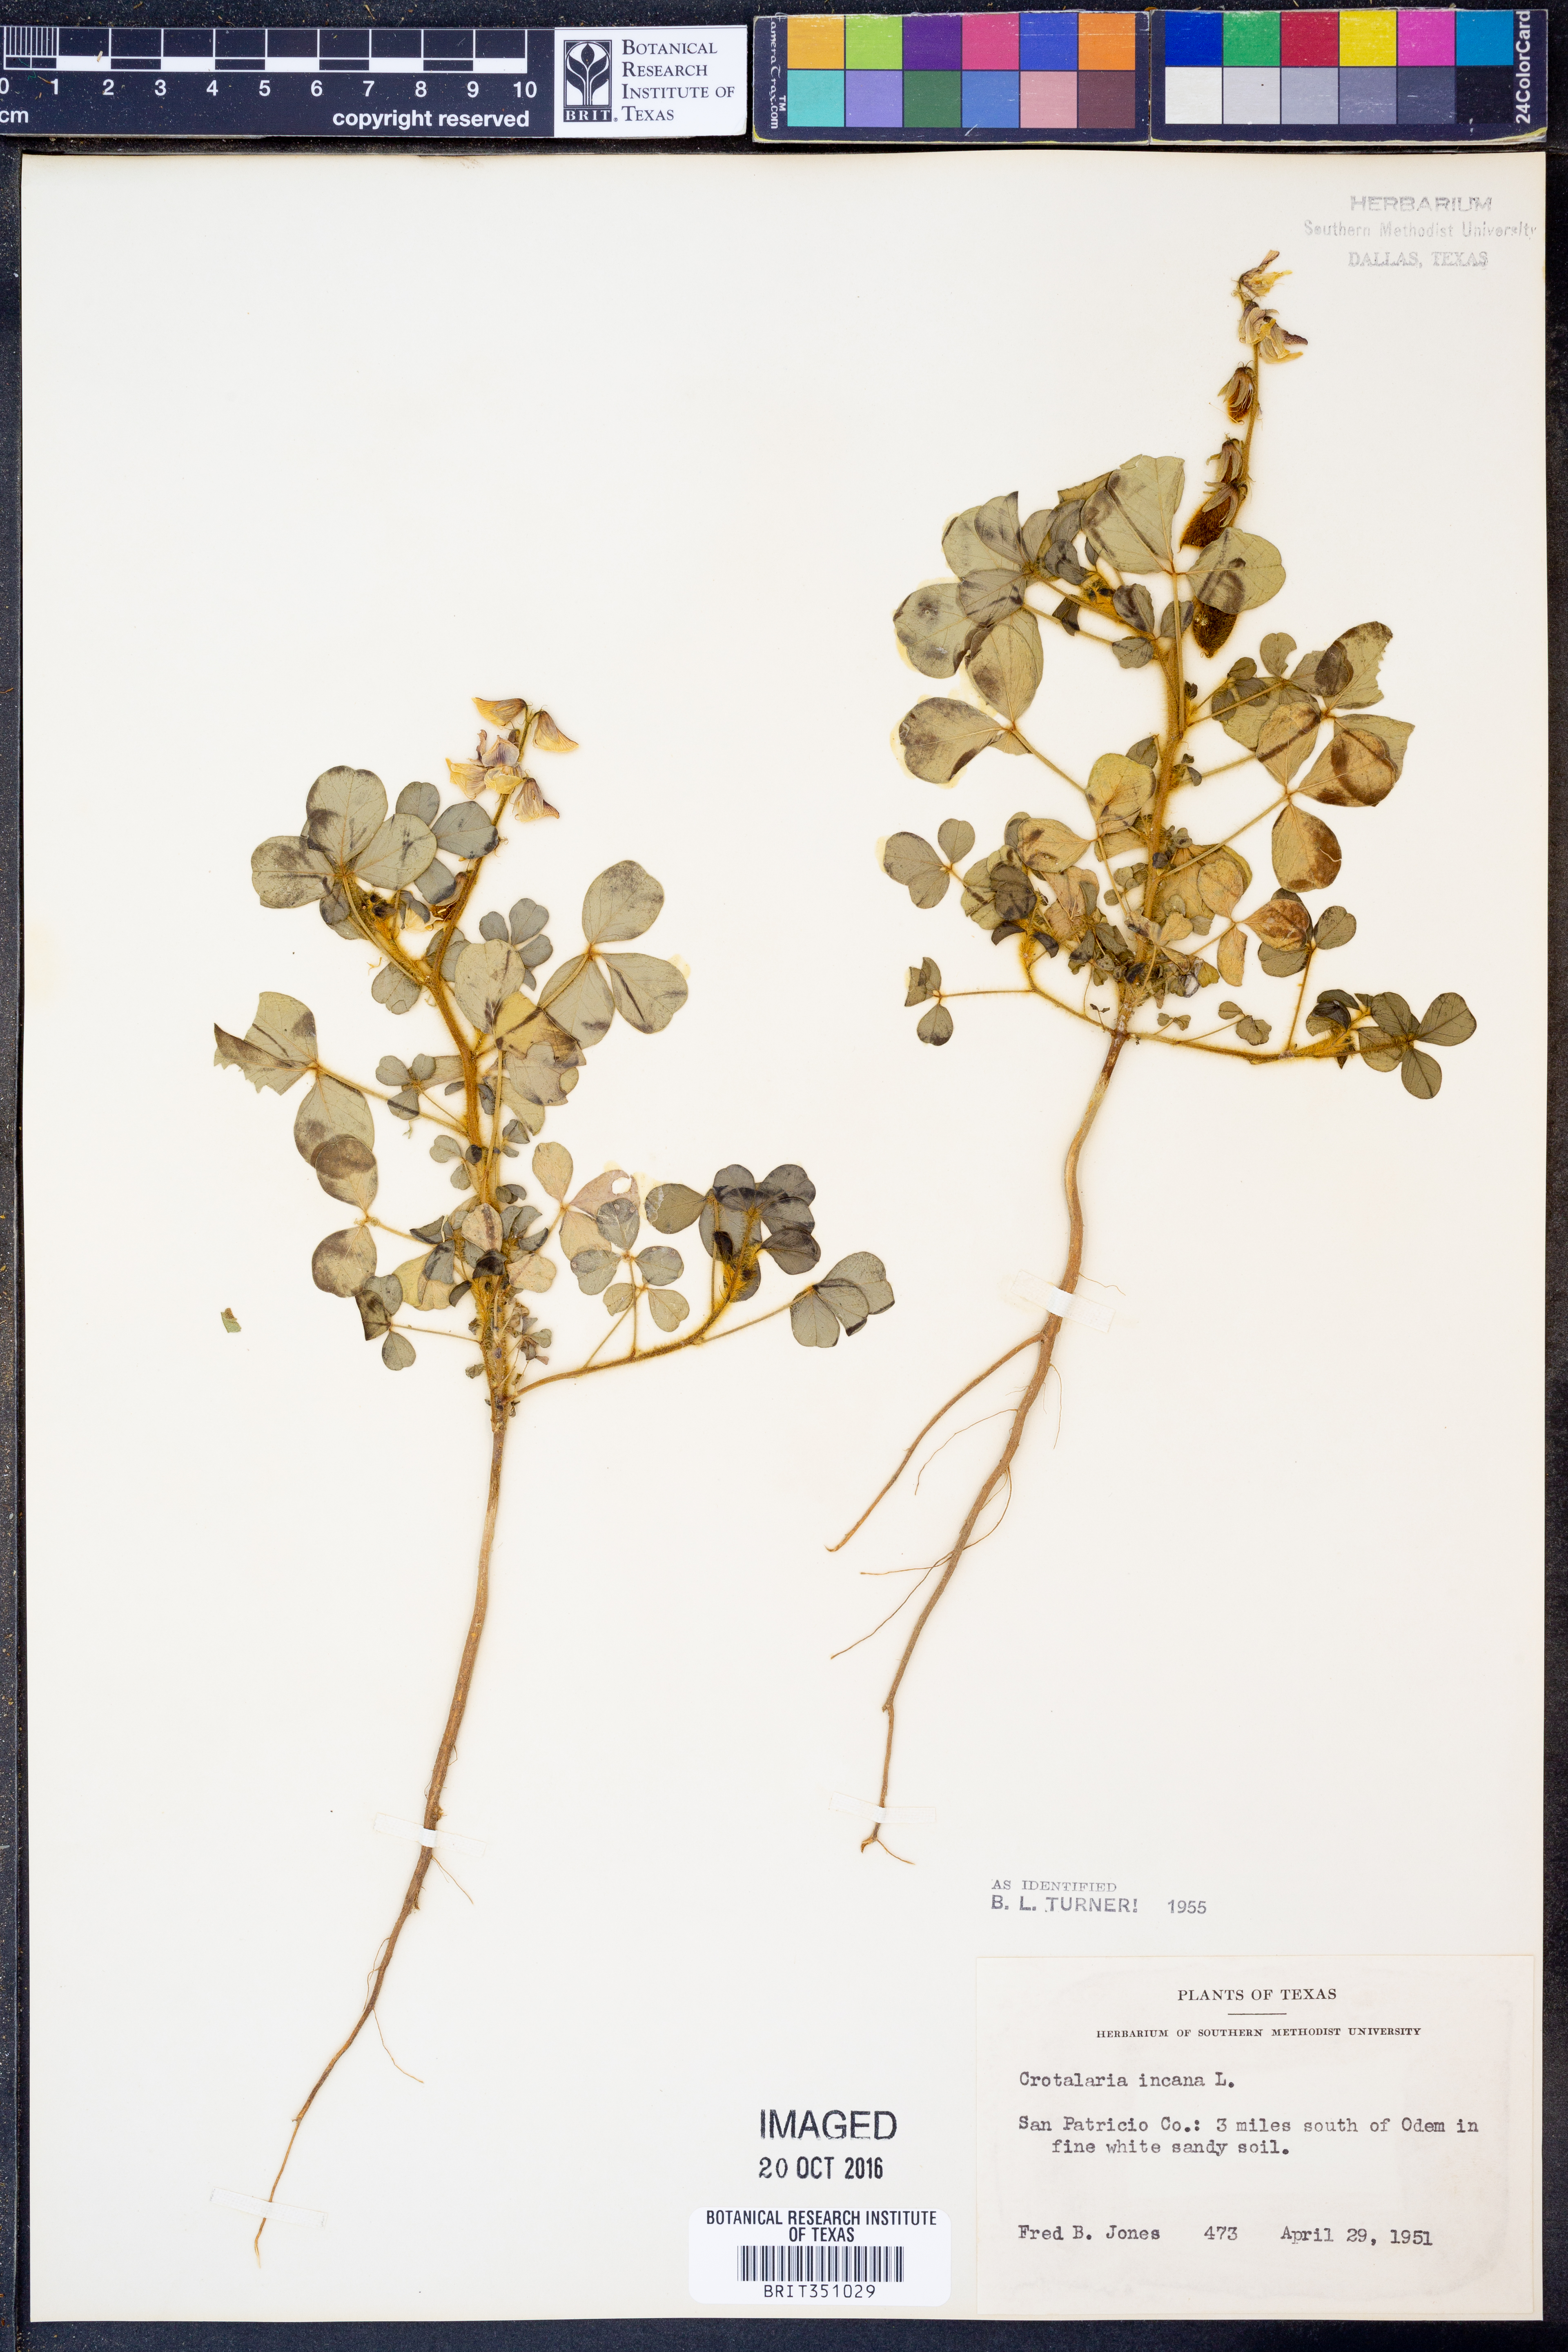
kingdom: Plantae
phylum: Tracheophyta
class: Magnoliopsida
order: Fabales
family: Fabaceae
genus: Crotalaria
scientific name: Crotalaria incana
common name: Shakeshake
